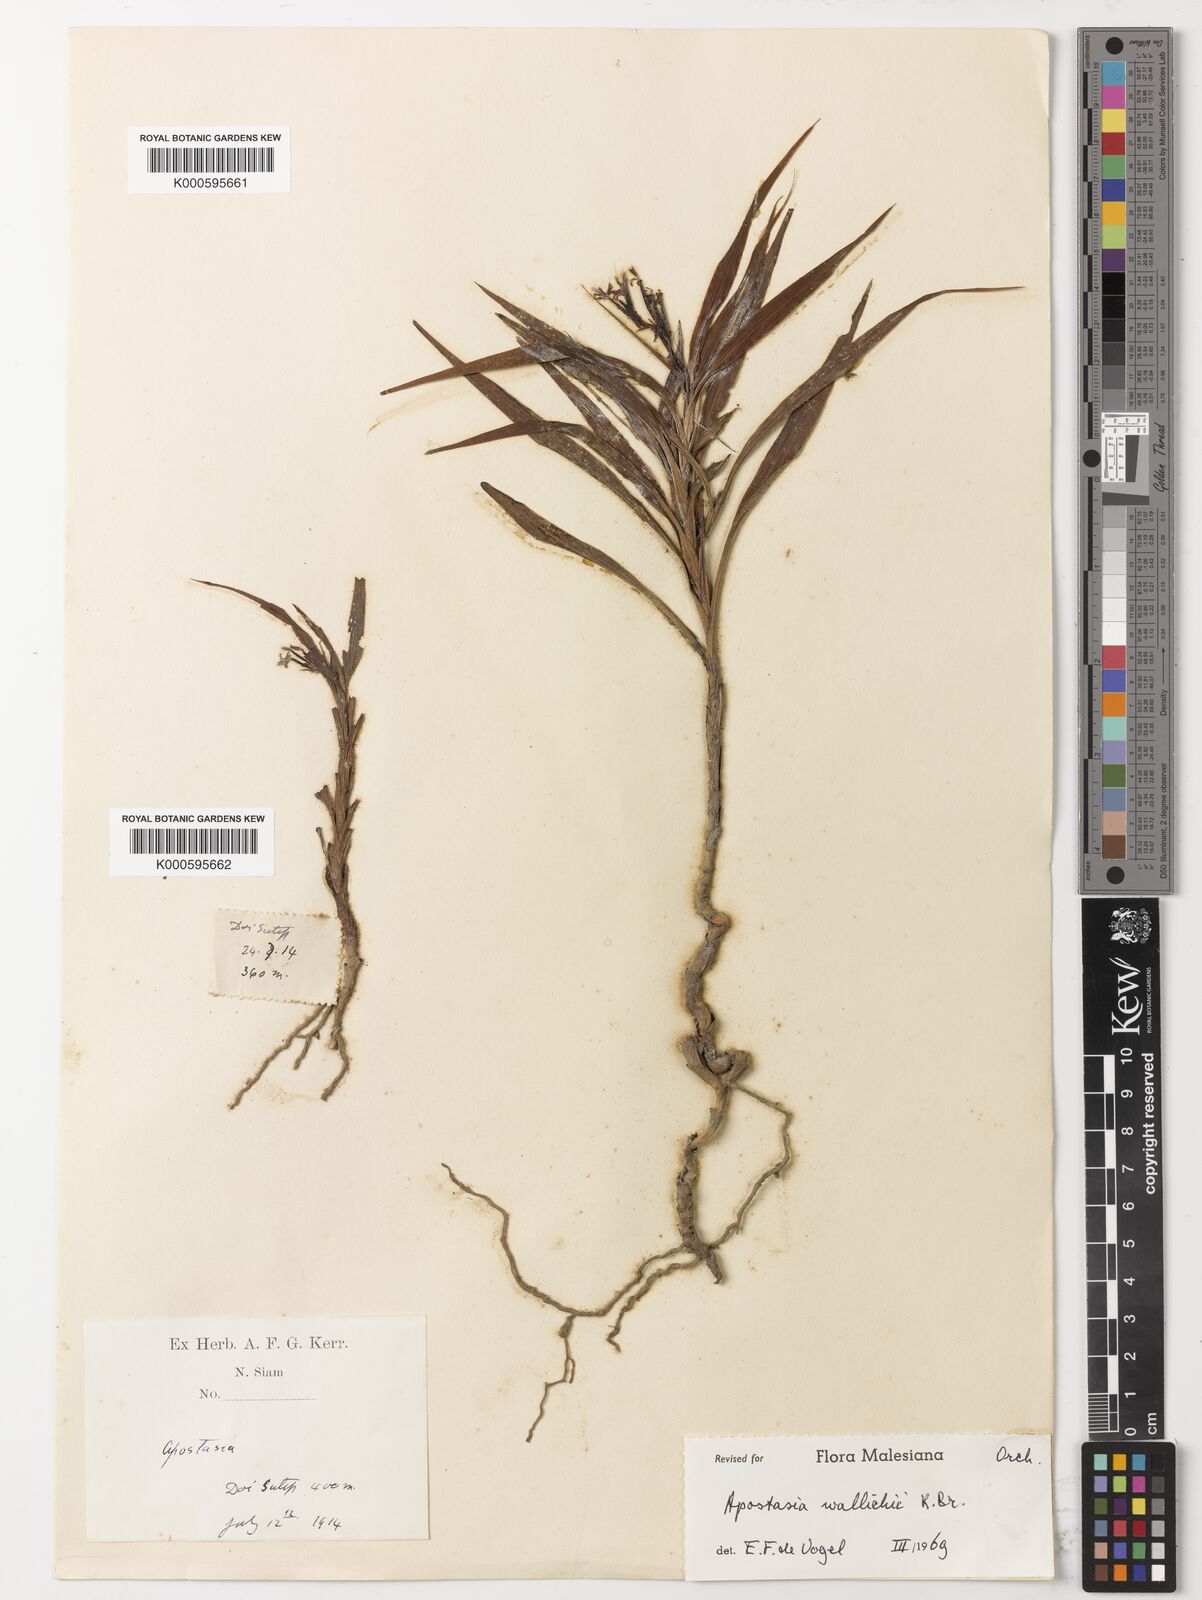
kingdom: Plantae
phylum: Tracheophyta
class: Liliopsida
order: Asparagales
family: Orchidaceae
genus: Apostasia
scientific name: Apostasia wallichii
